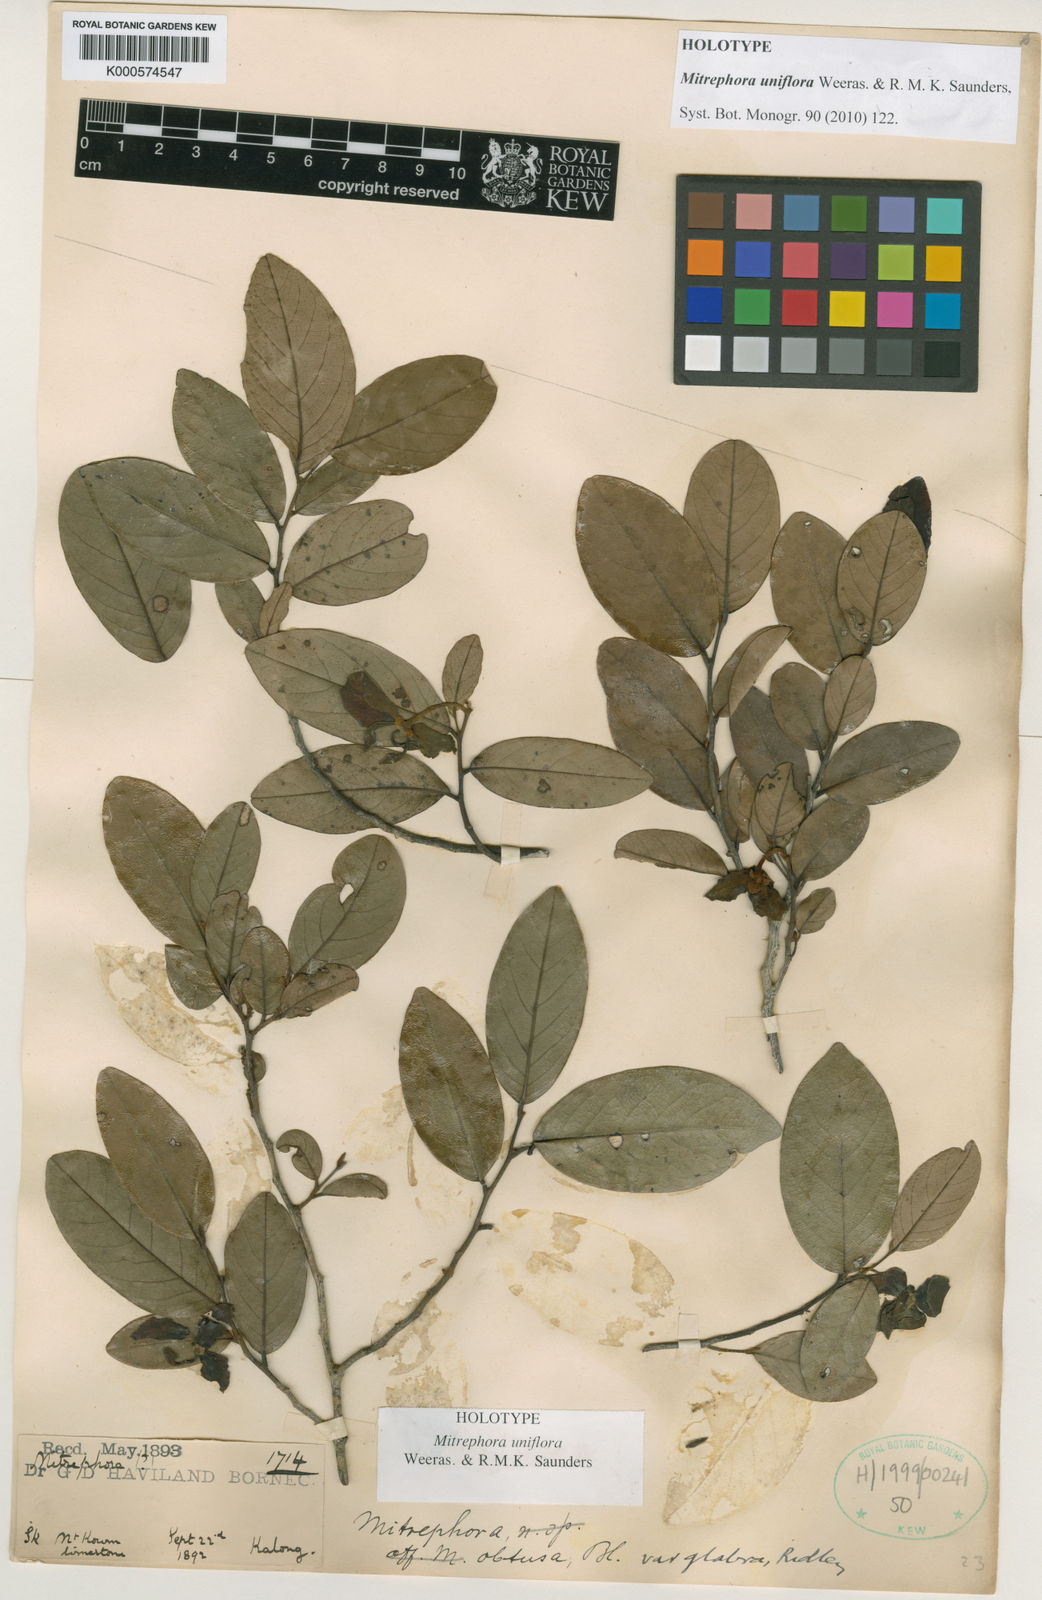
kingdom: Plantae
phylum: Tracheophyta
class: Magnoliopsida
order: Magnoliales
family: Annonaceae
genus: Mitrephora
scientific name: Mitrephora uniflora
